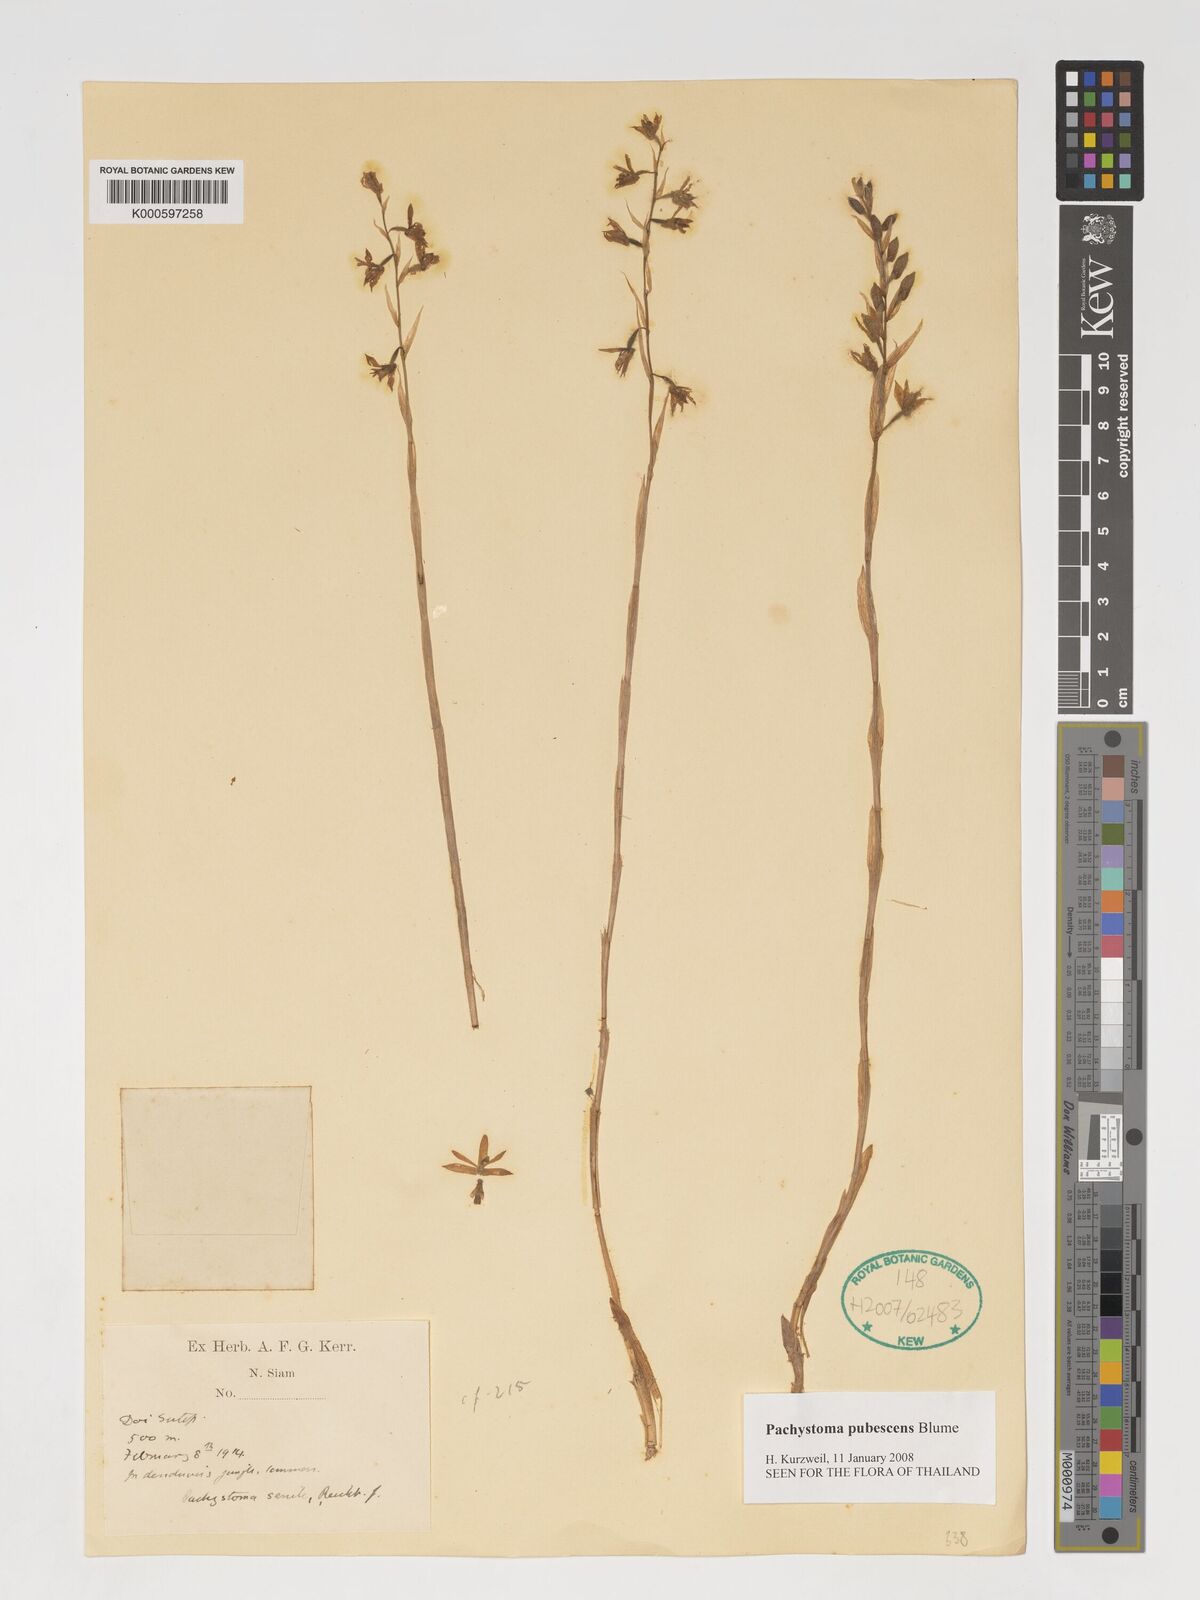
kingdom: Plantae
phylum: Tracheophyta
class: Liliopsida
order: Asparagales
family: Orchidaceae
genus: Pachystoma
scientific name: Pachystoma pubescens
